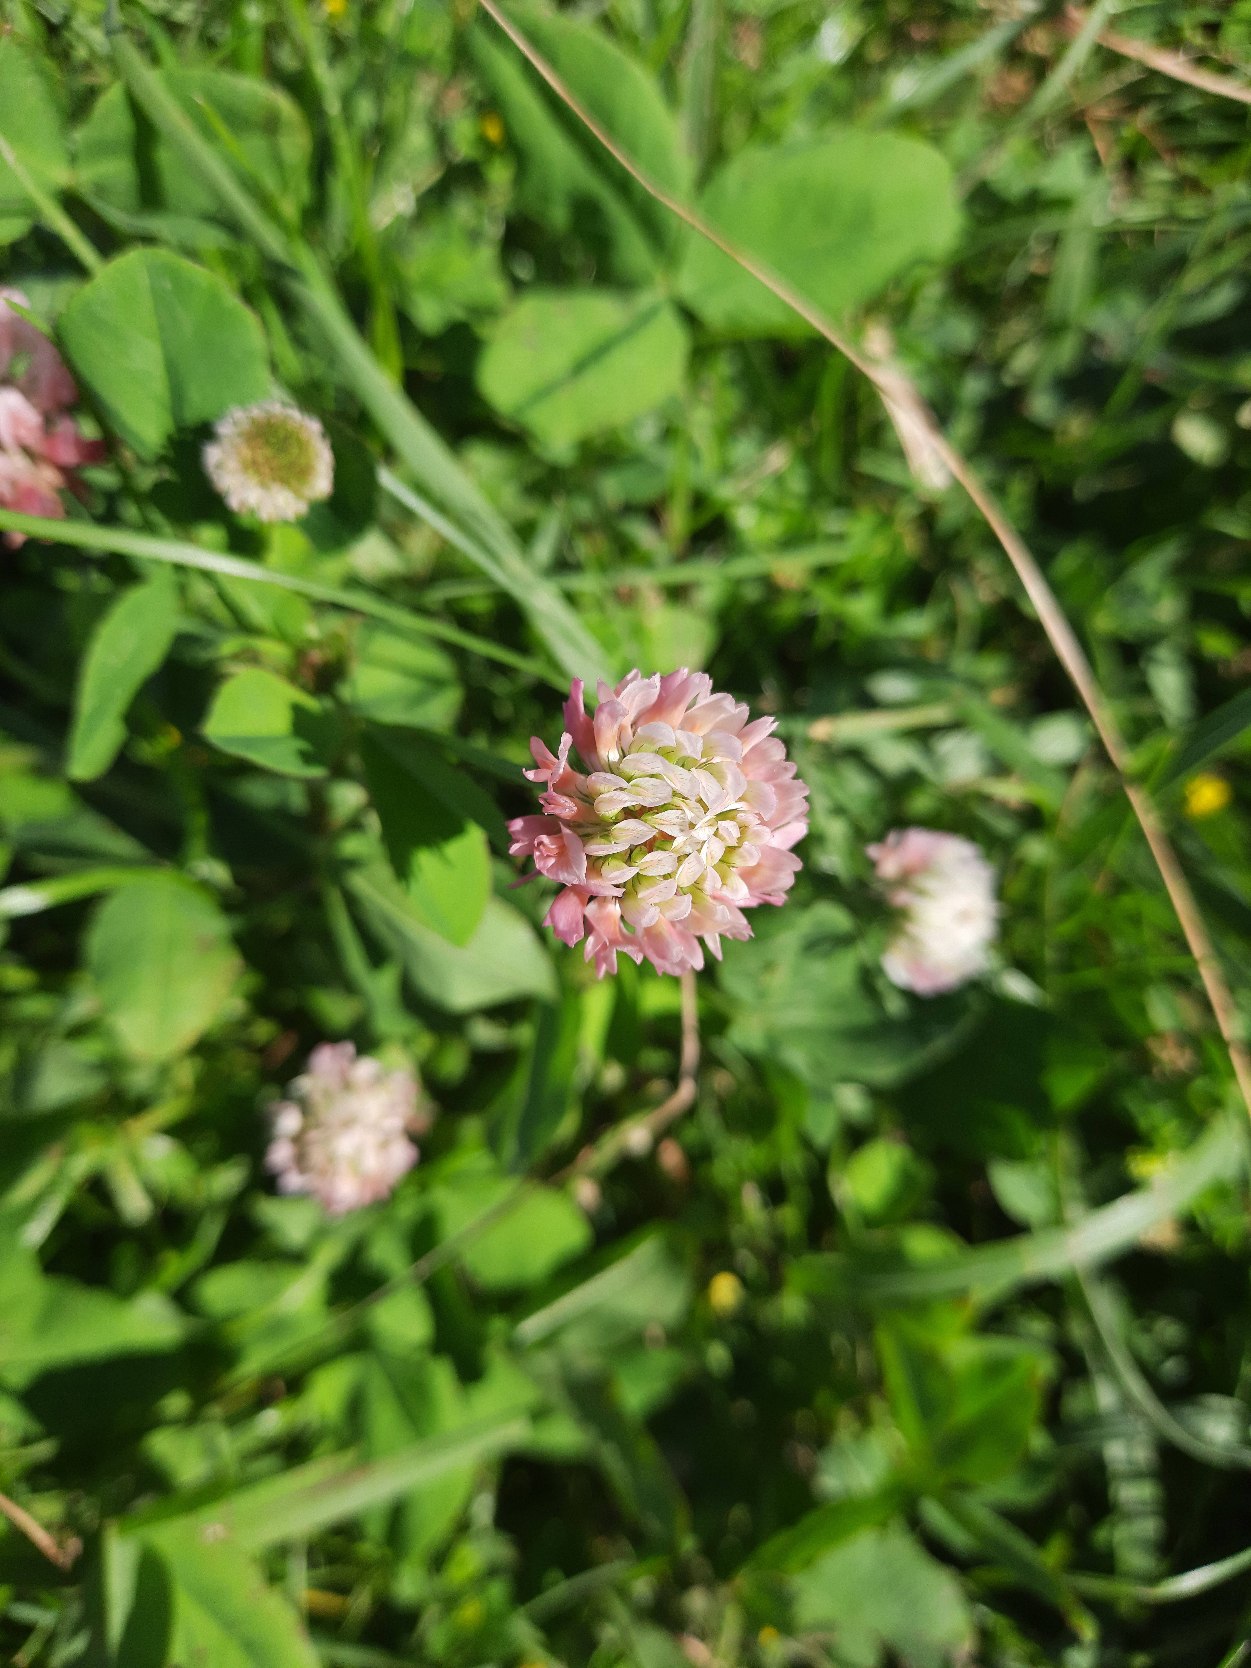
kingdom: Plantae
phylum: Tracheophyta
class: Magnoliopsida
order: Fabales
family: Fabaceae
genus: Trifolium
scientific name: Trifolium pratense
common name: Rød-kløver
